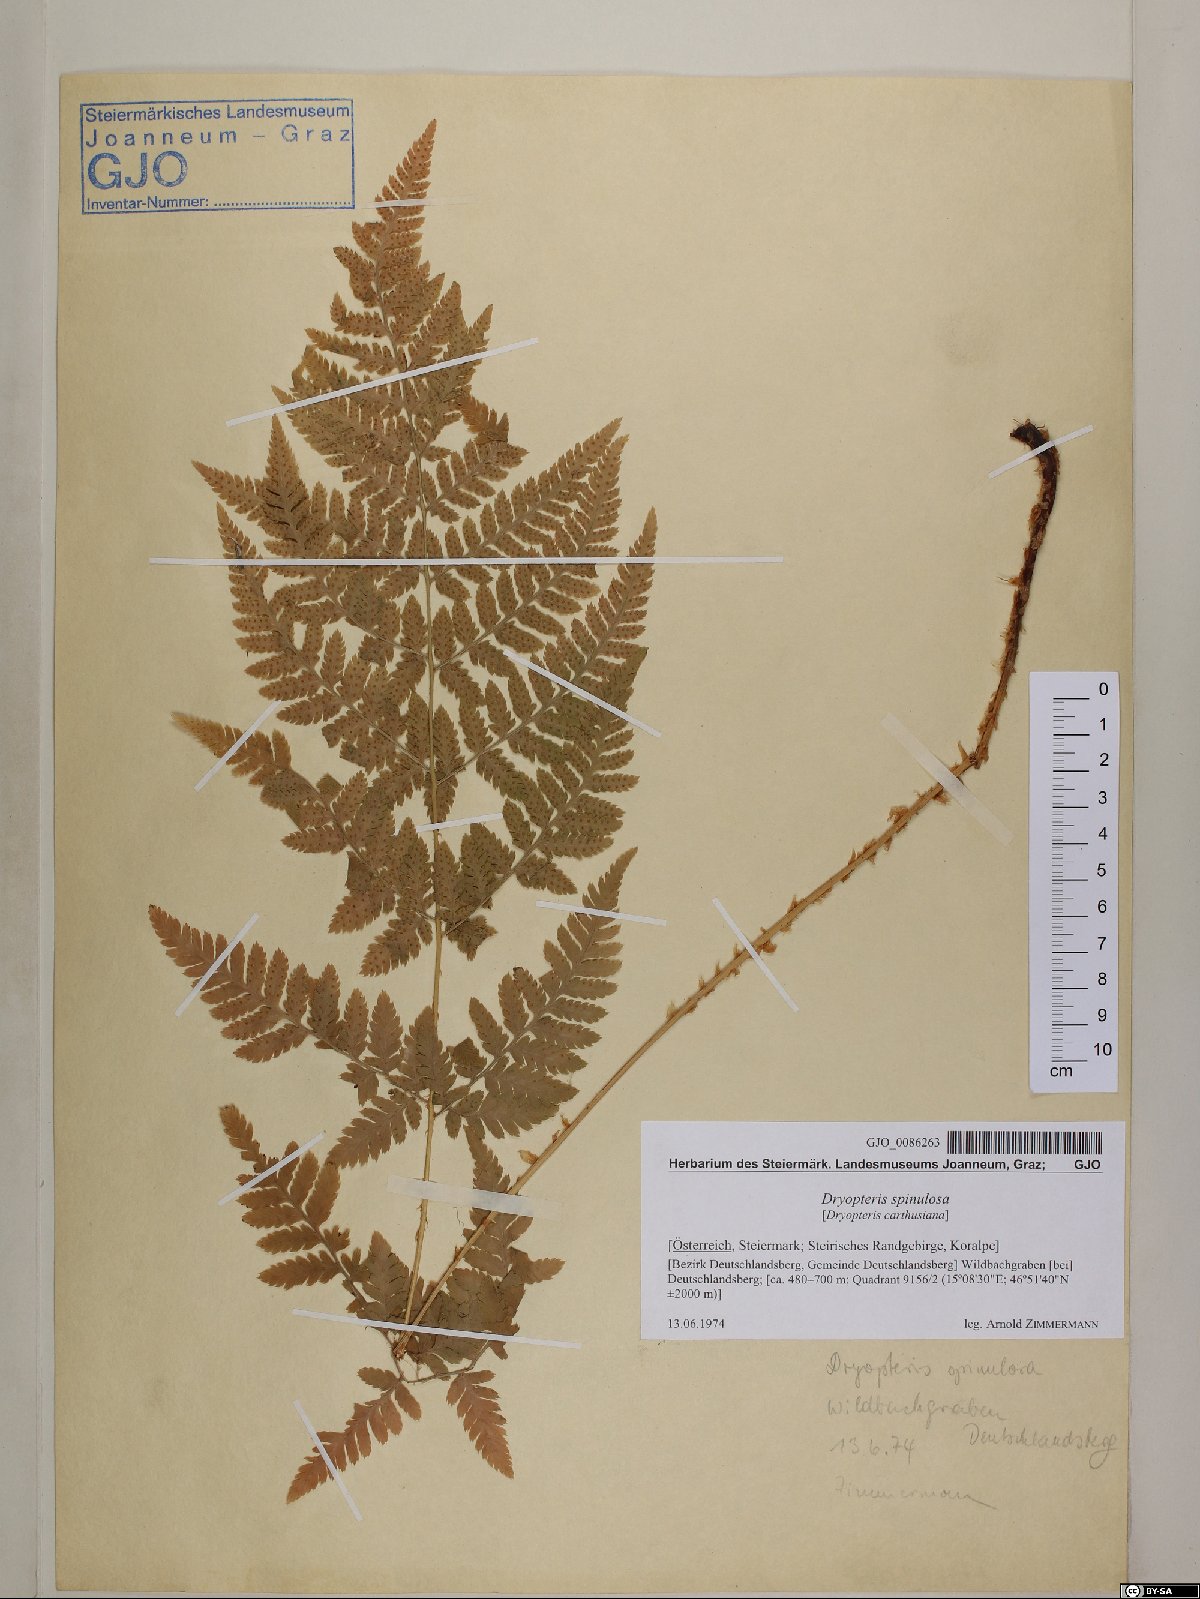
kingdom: Plantae
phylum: Tracheophyta
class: Polypodiopsida
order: Polypodiales
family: Dryopteridaceae
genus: Dryopteris
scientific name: Dryopteris carthusiana
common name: Narrow buckler-fern
